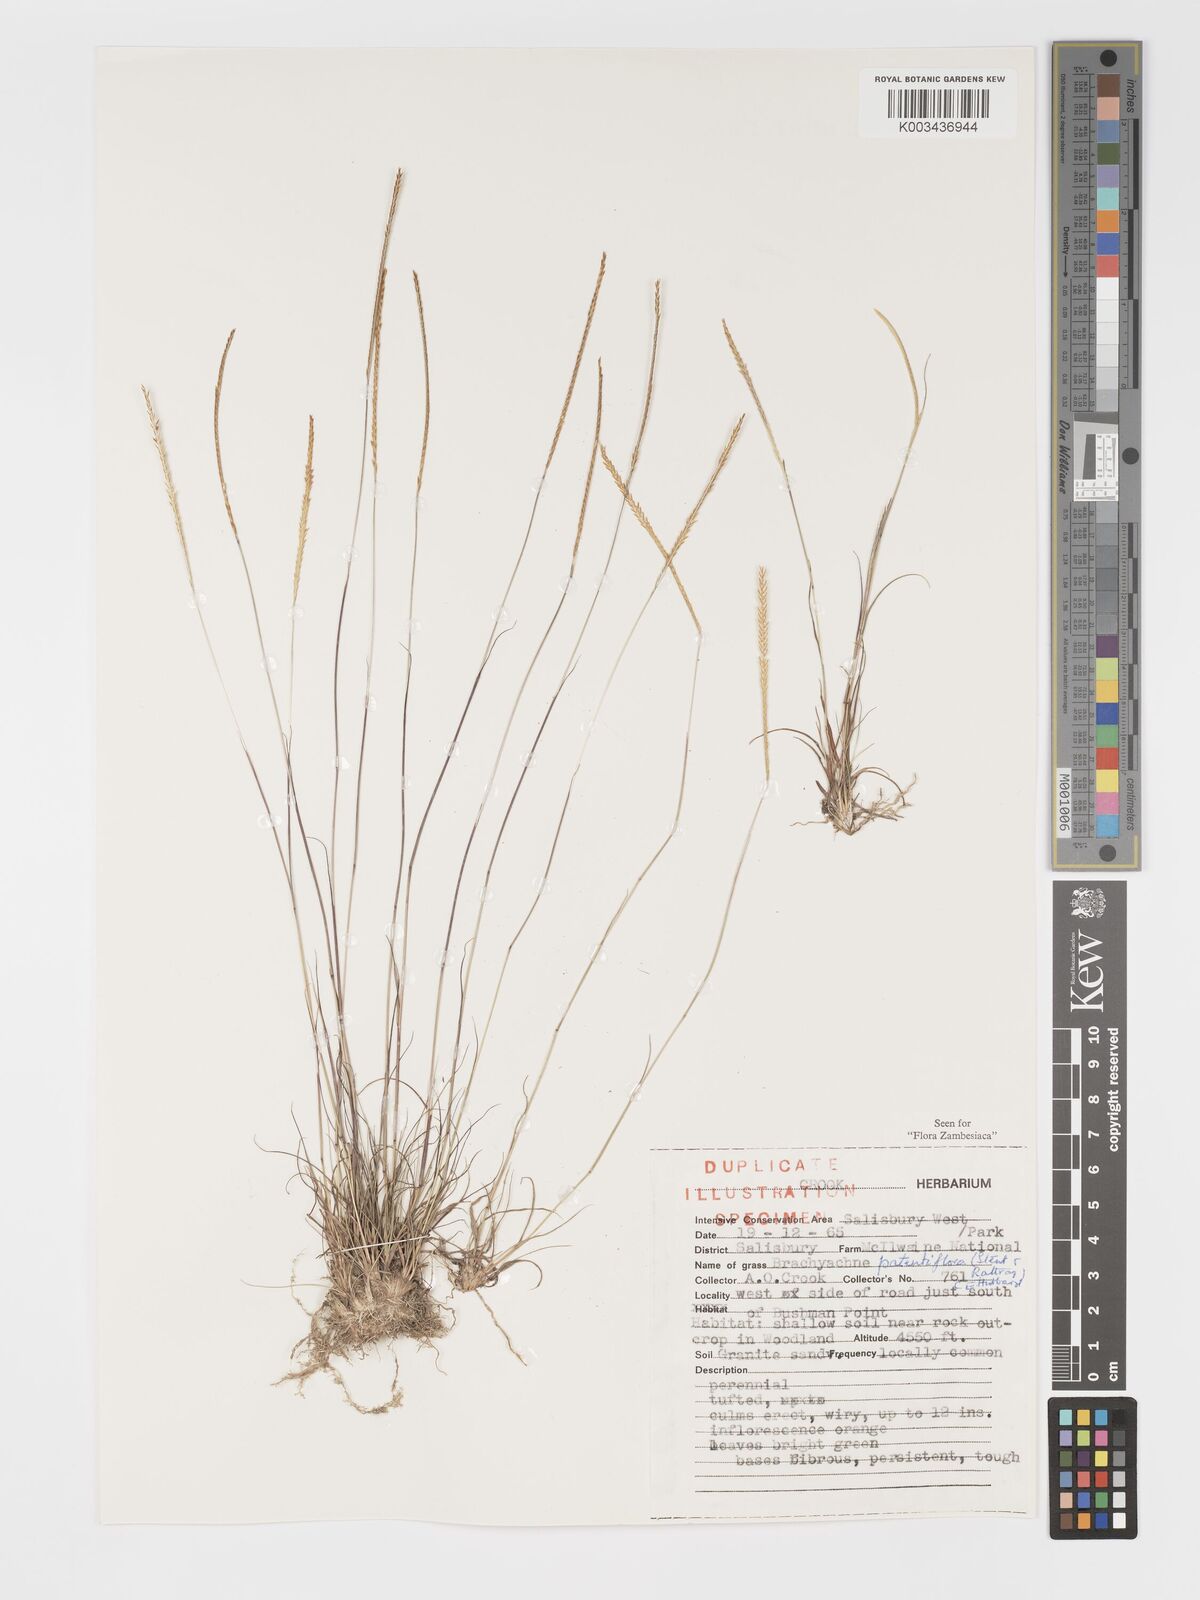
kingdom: Plantae
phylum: Tracheophyta
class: Liliopsida
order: Poales
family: Poaceae
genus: Micrachne
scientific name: Micrachne patentiflora
